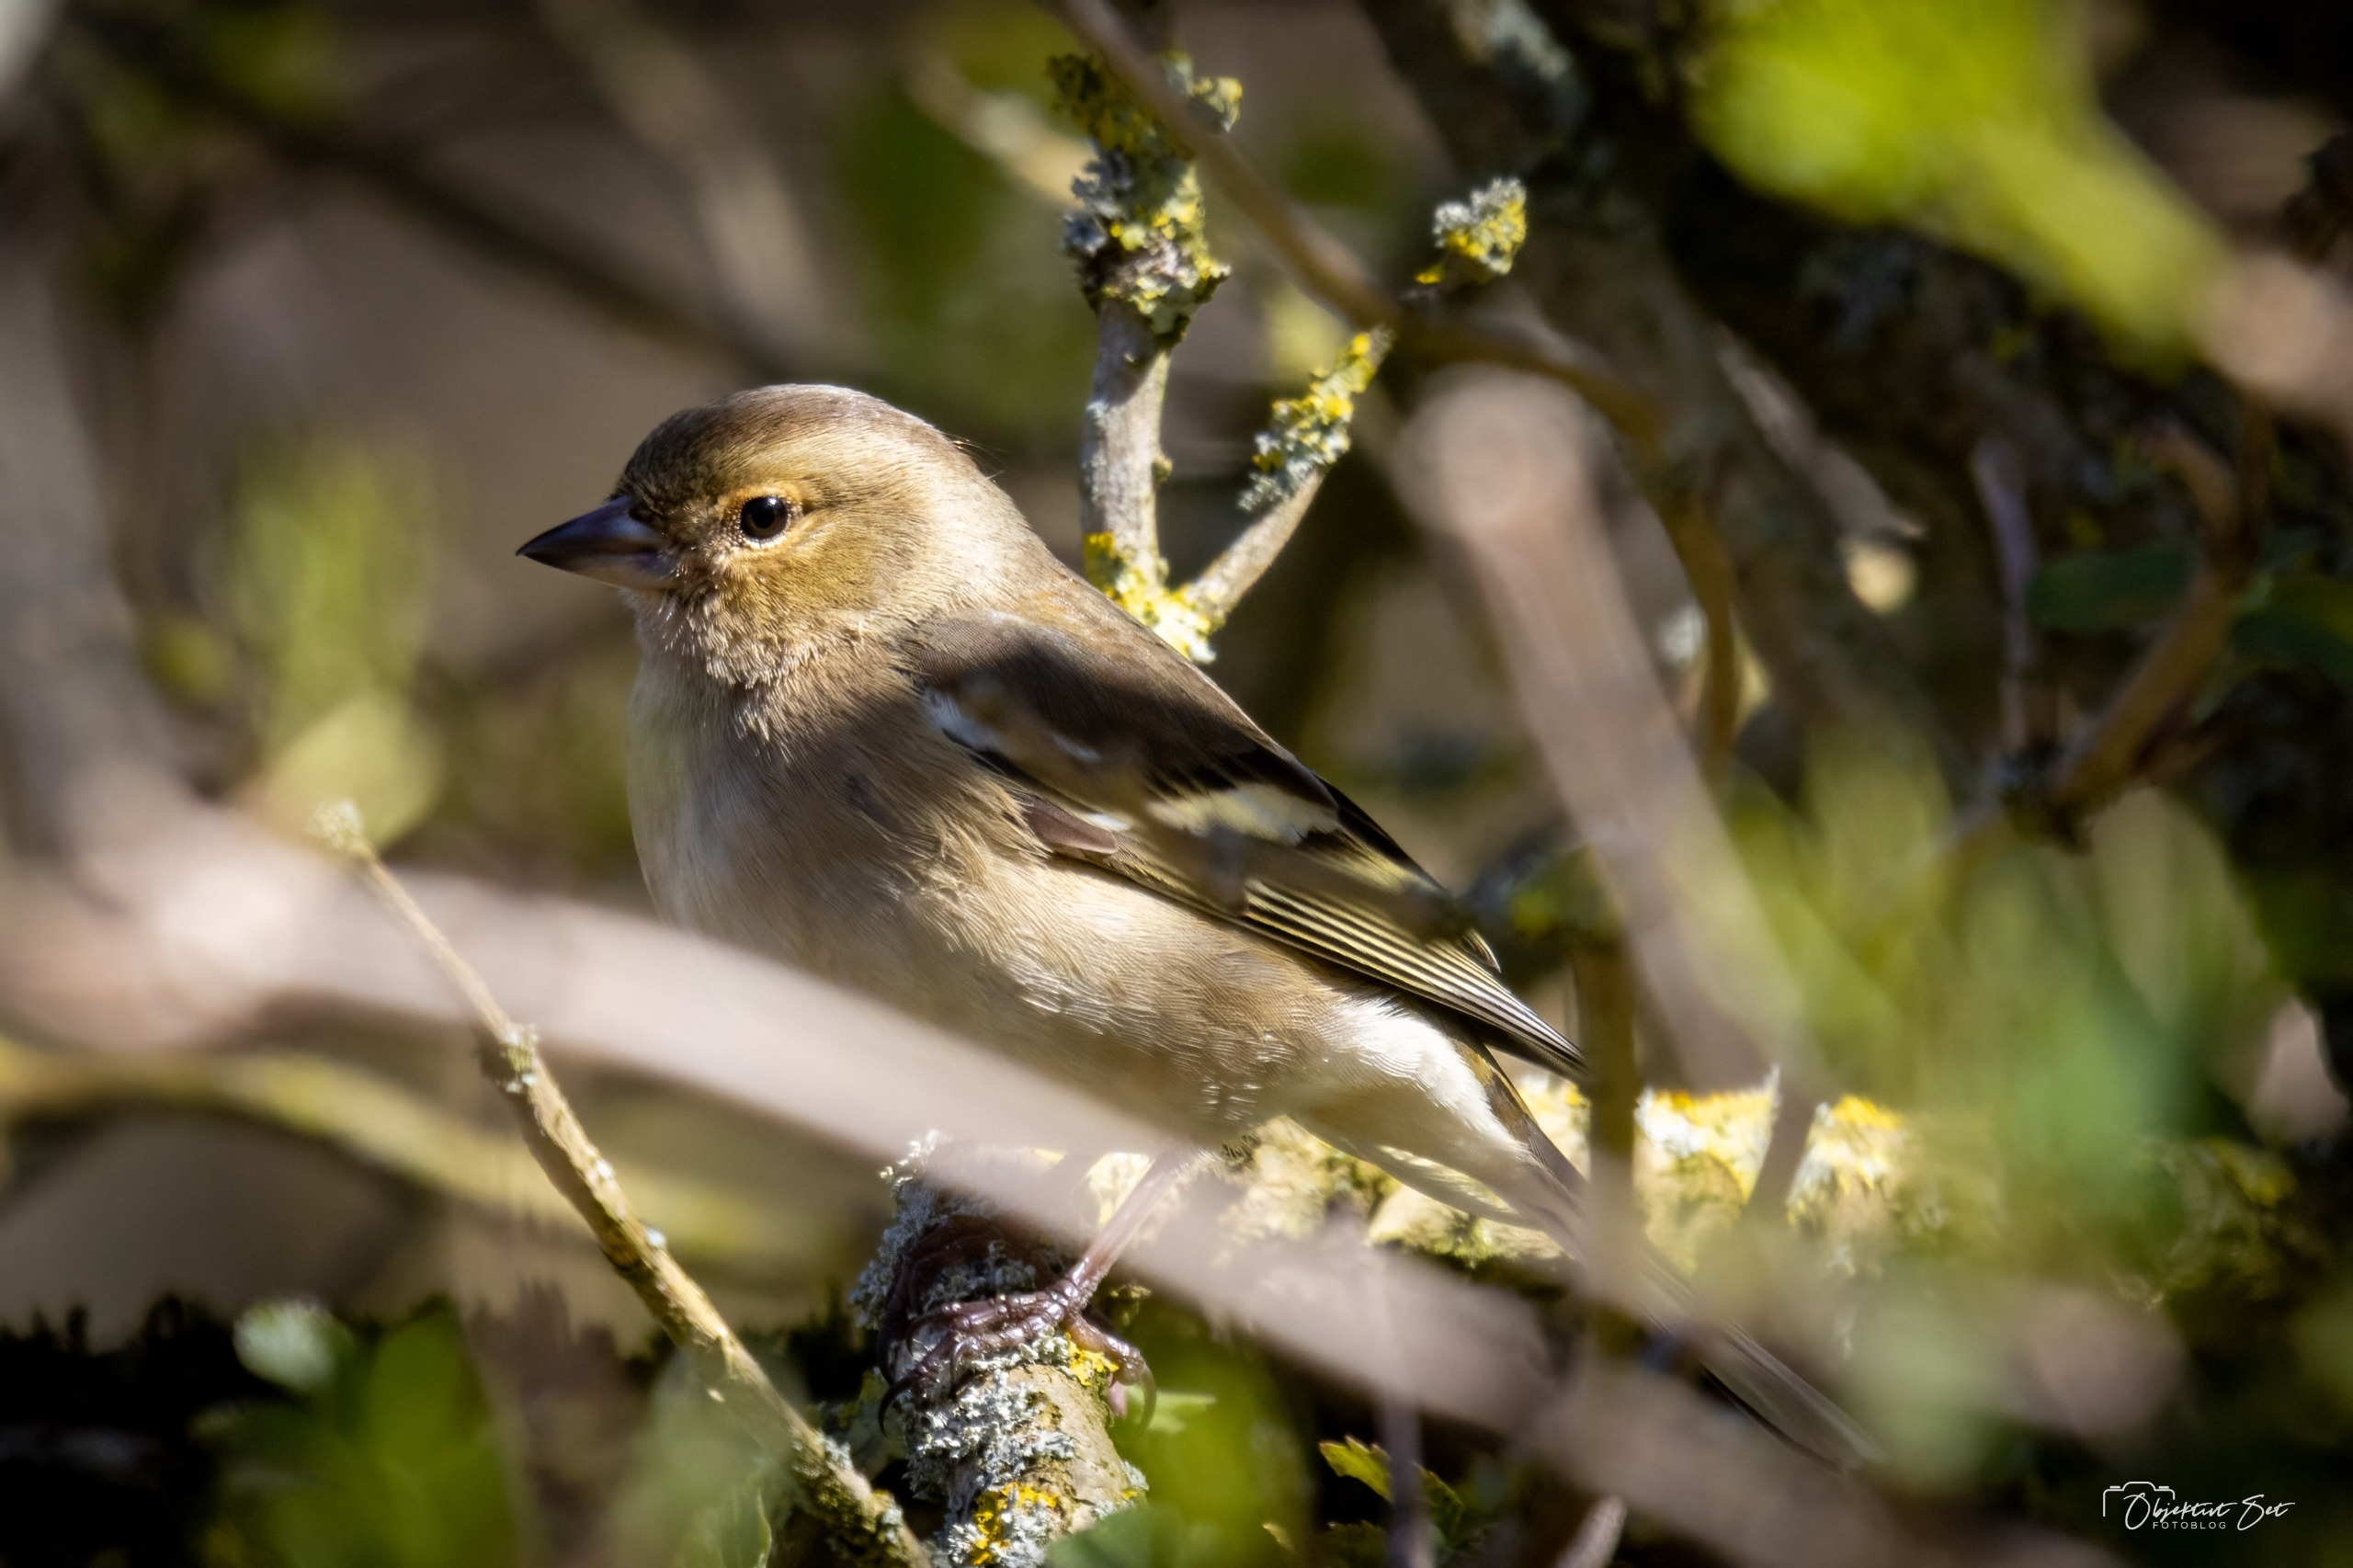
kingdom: Animalia
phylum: Chordata
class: Aves
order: Passeriformes
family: Fringillidae
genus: Fringilla
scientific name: Fringilla coelebs
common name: Bogfinke
